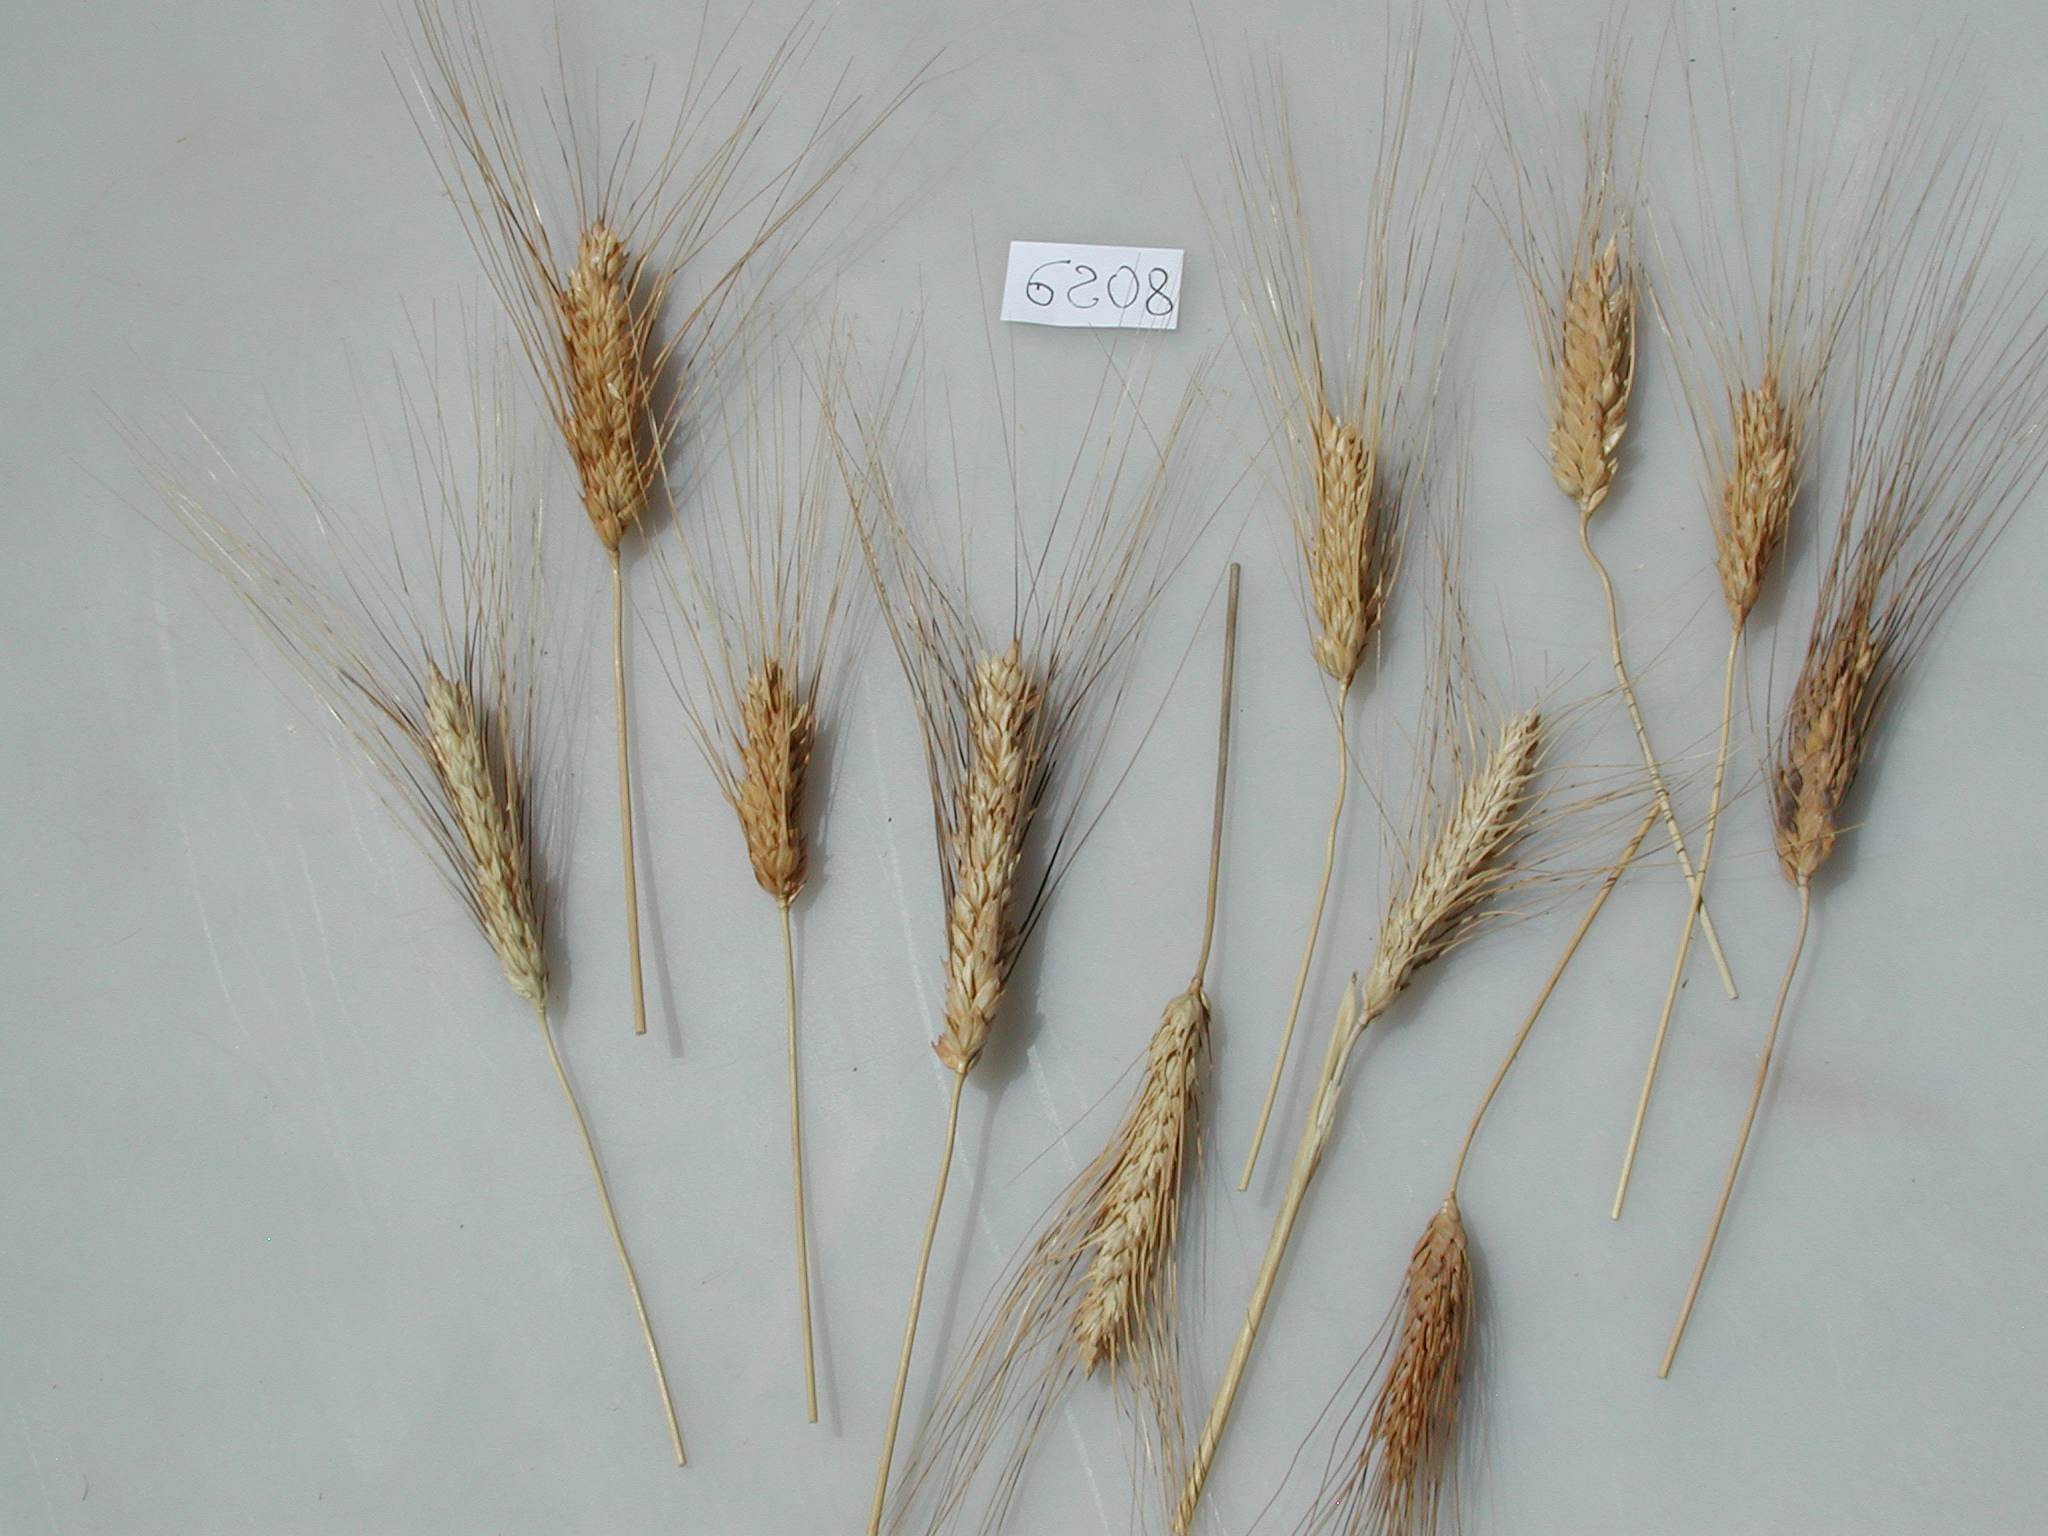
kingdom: Plantae
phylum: Tracheophyta
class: Liliopsida
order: Poales
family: Poaceae
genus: Triticum
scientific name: Triticum turgidum
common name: Wheat
